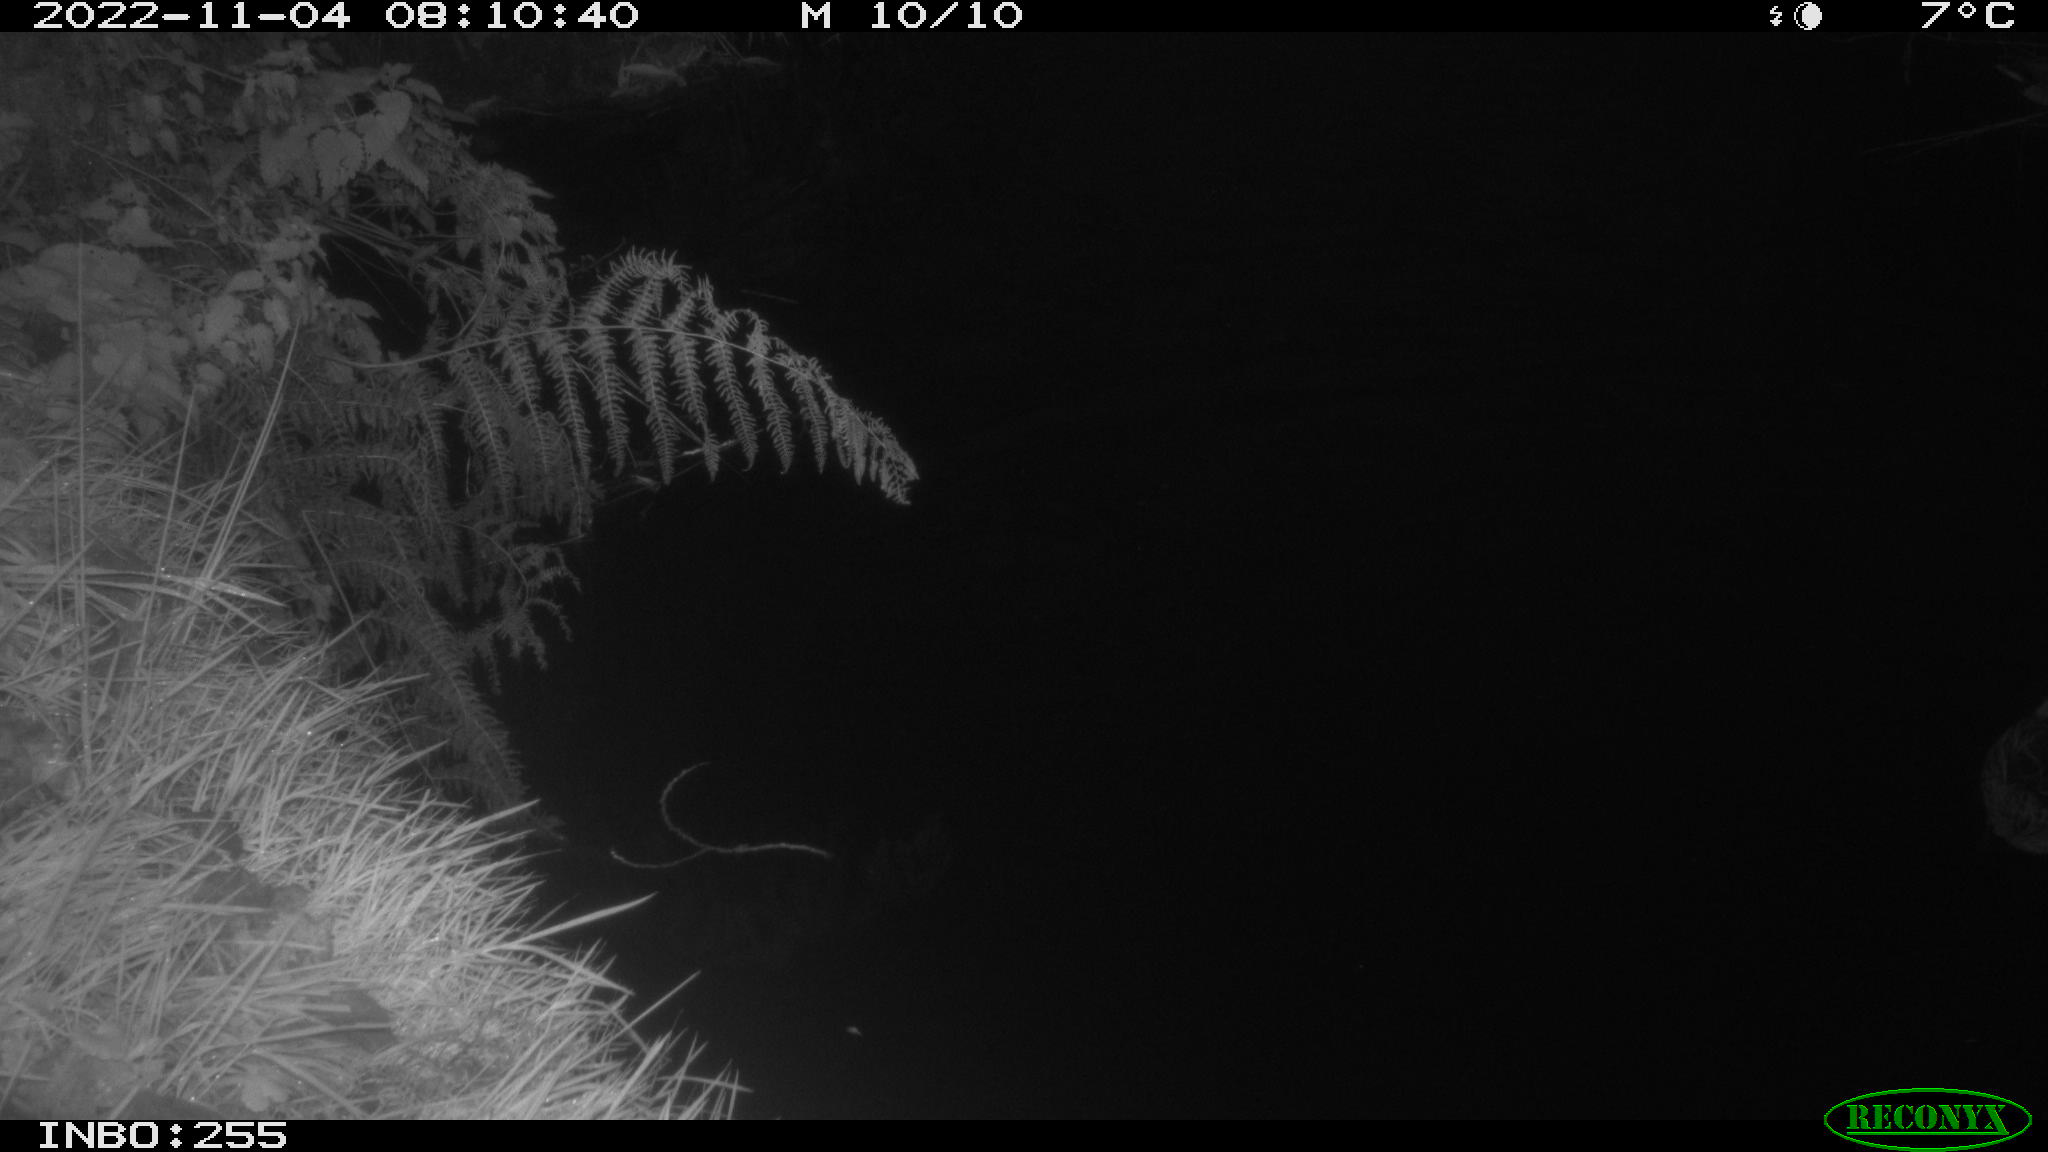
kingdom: Animalia
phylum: Chordata
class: Aves
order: Anseriformes
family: Anatidae
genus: Anas
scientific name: Anas
